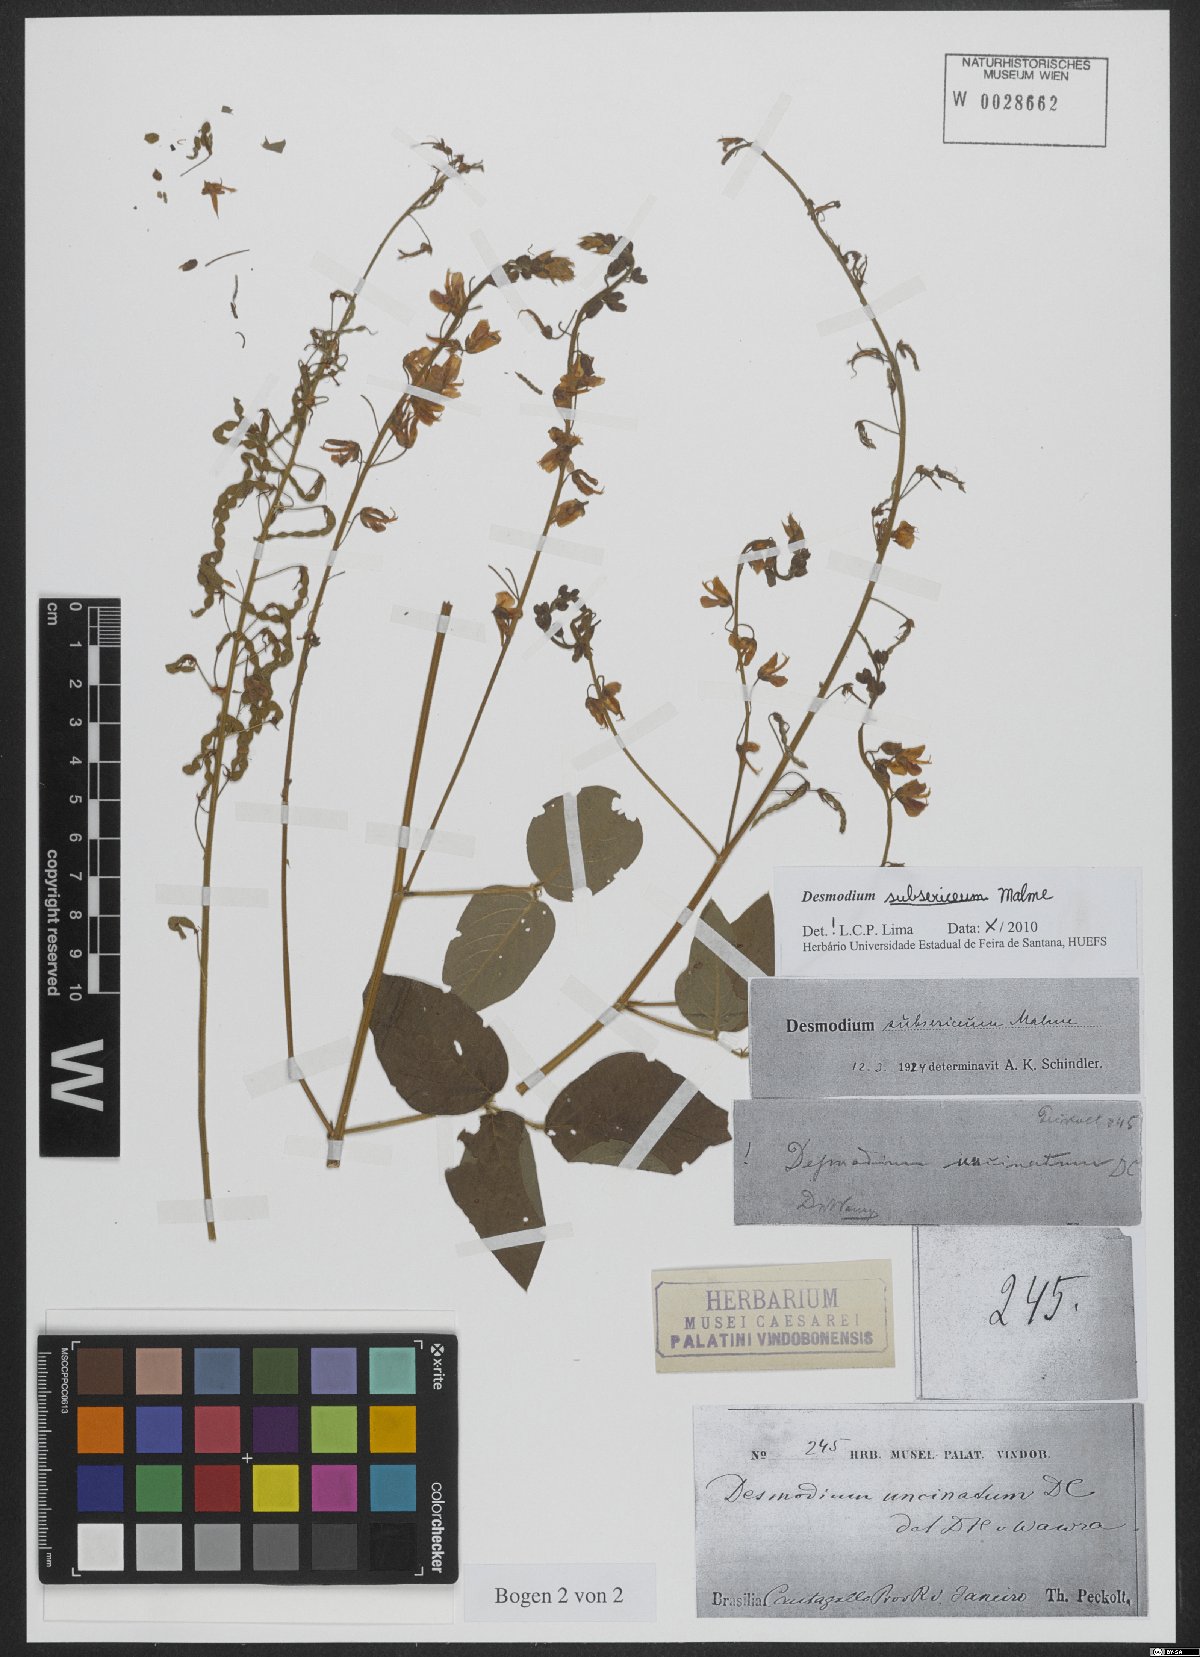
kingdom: Plantae
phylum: Tracheophyta
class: Magnoliopsida
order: Fabales
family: Fabaceae
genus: Desmodium
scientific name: Desmodium subsericeum
